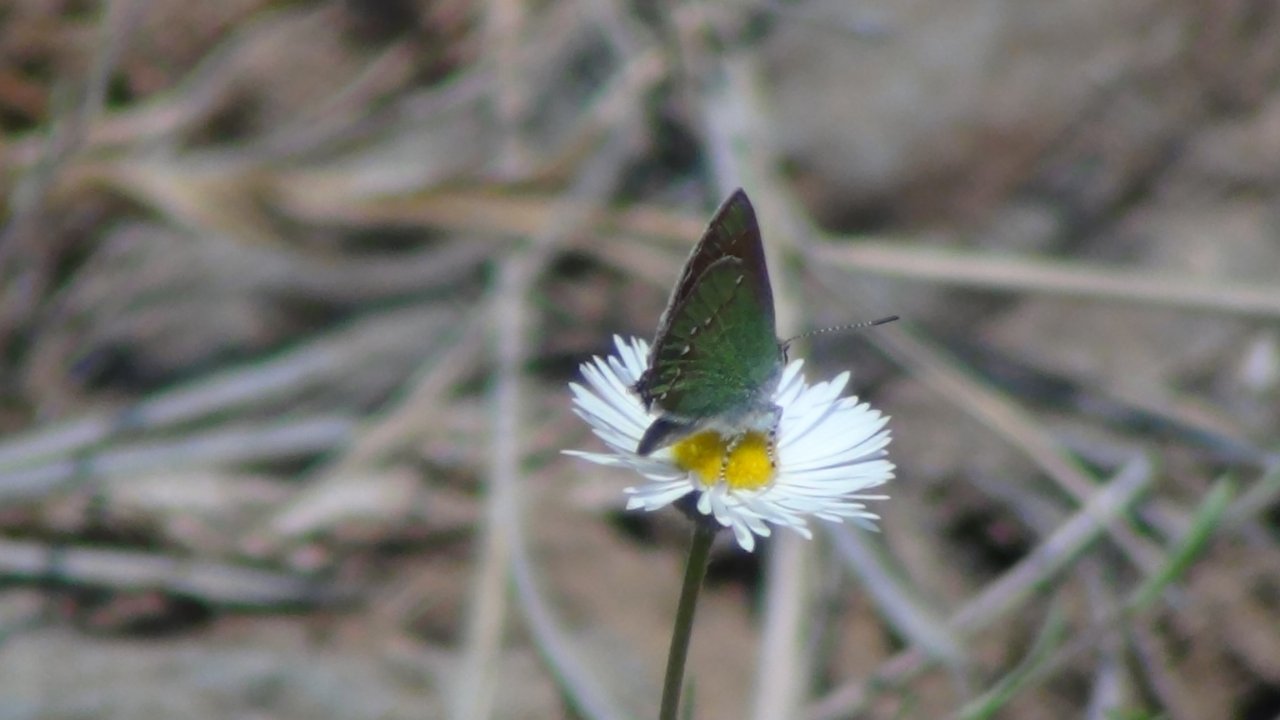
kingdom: Animalia
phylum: Arthropoda
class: Insecta
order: Lepidoptera
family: Lycaenidae
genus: Callophrys
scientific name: Callophrys affinis
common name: Western Green Hairstreak
